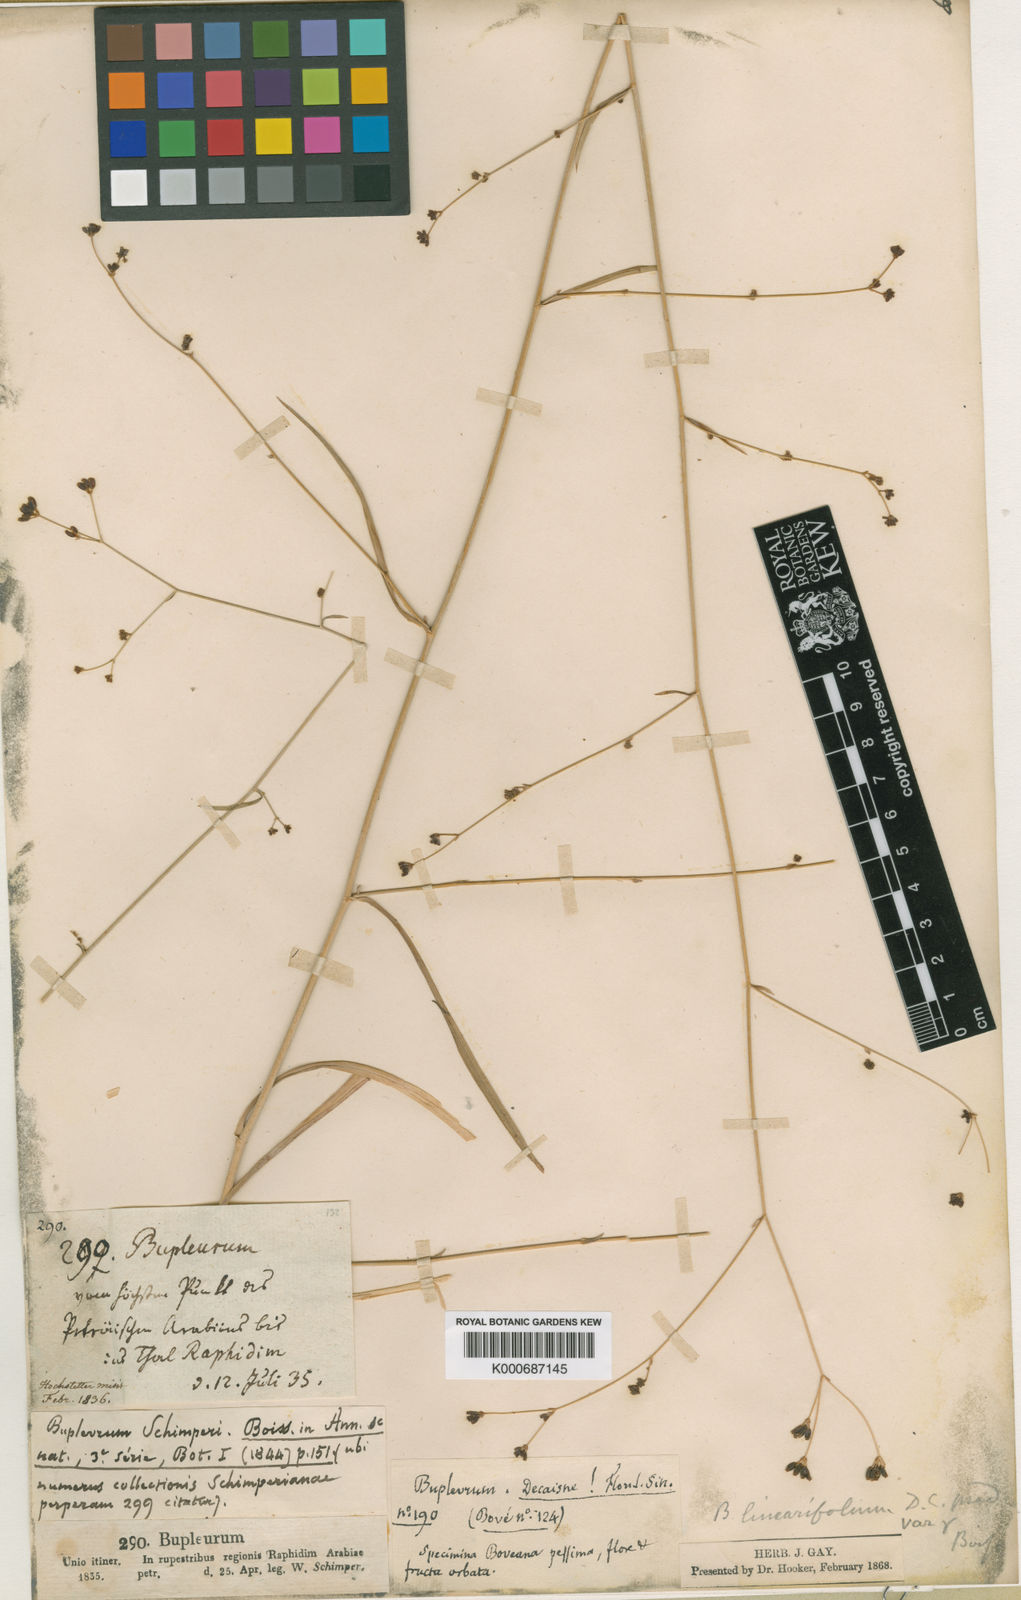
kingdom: Plantae
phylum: Tracheophyta
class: Magnoliopsida
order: Apiales
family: Apiaceae
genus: Bupleurum
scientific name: Bupleurum falcatum
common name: Sickle-leaved hare's-ear
